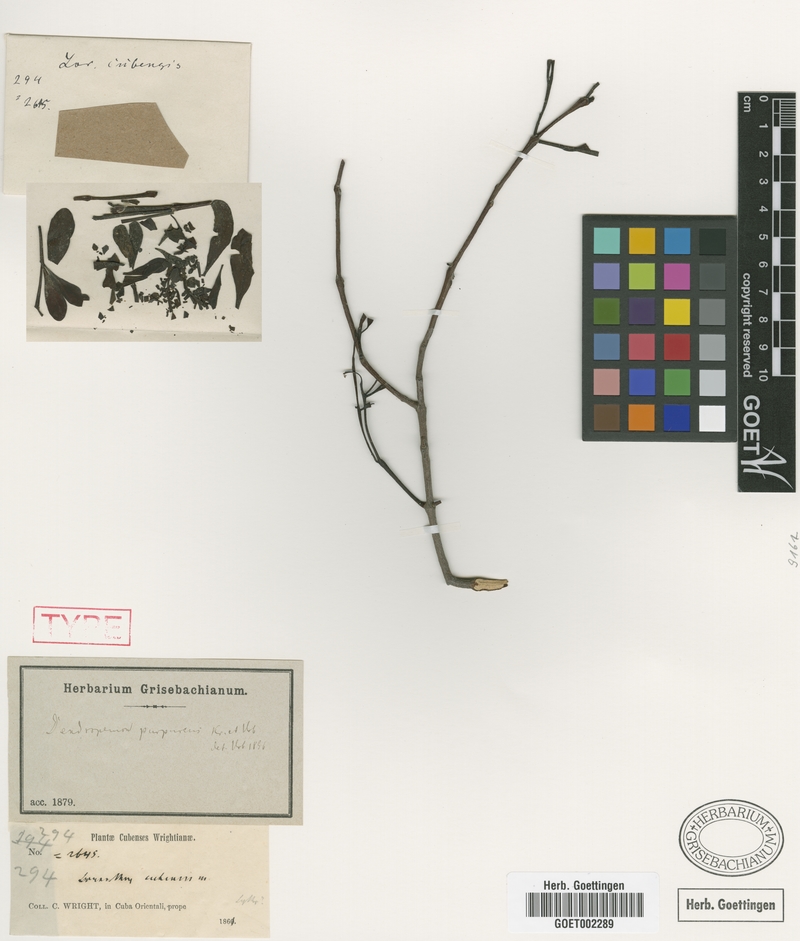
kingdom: Plantae
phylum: Tracheophyta
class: Magnoliopsida
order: Santalales
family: Loranthaceae
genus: Dendropemon
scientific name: Dendropemon purpureus
